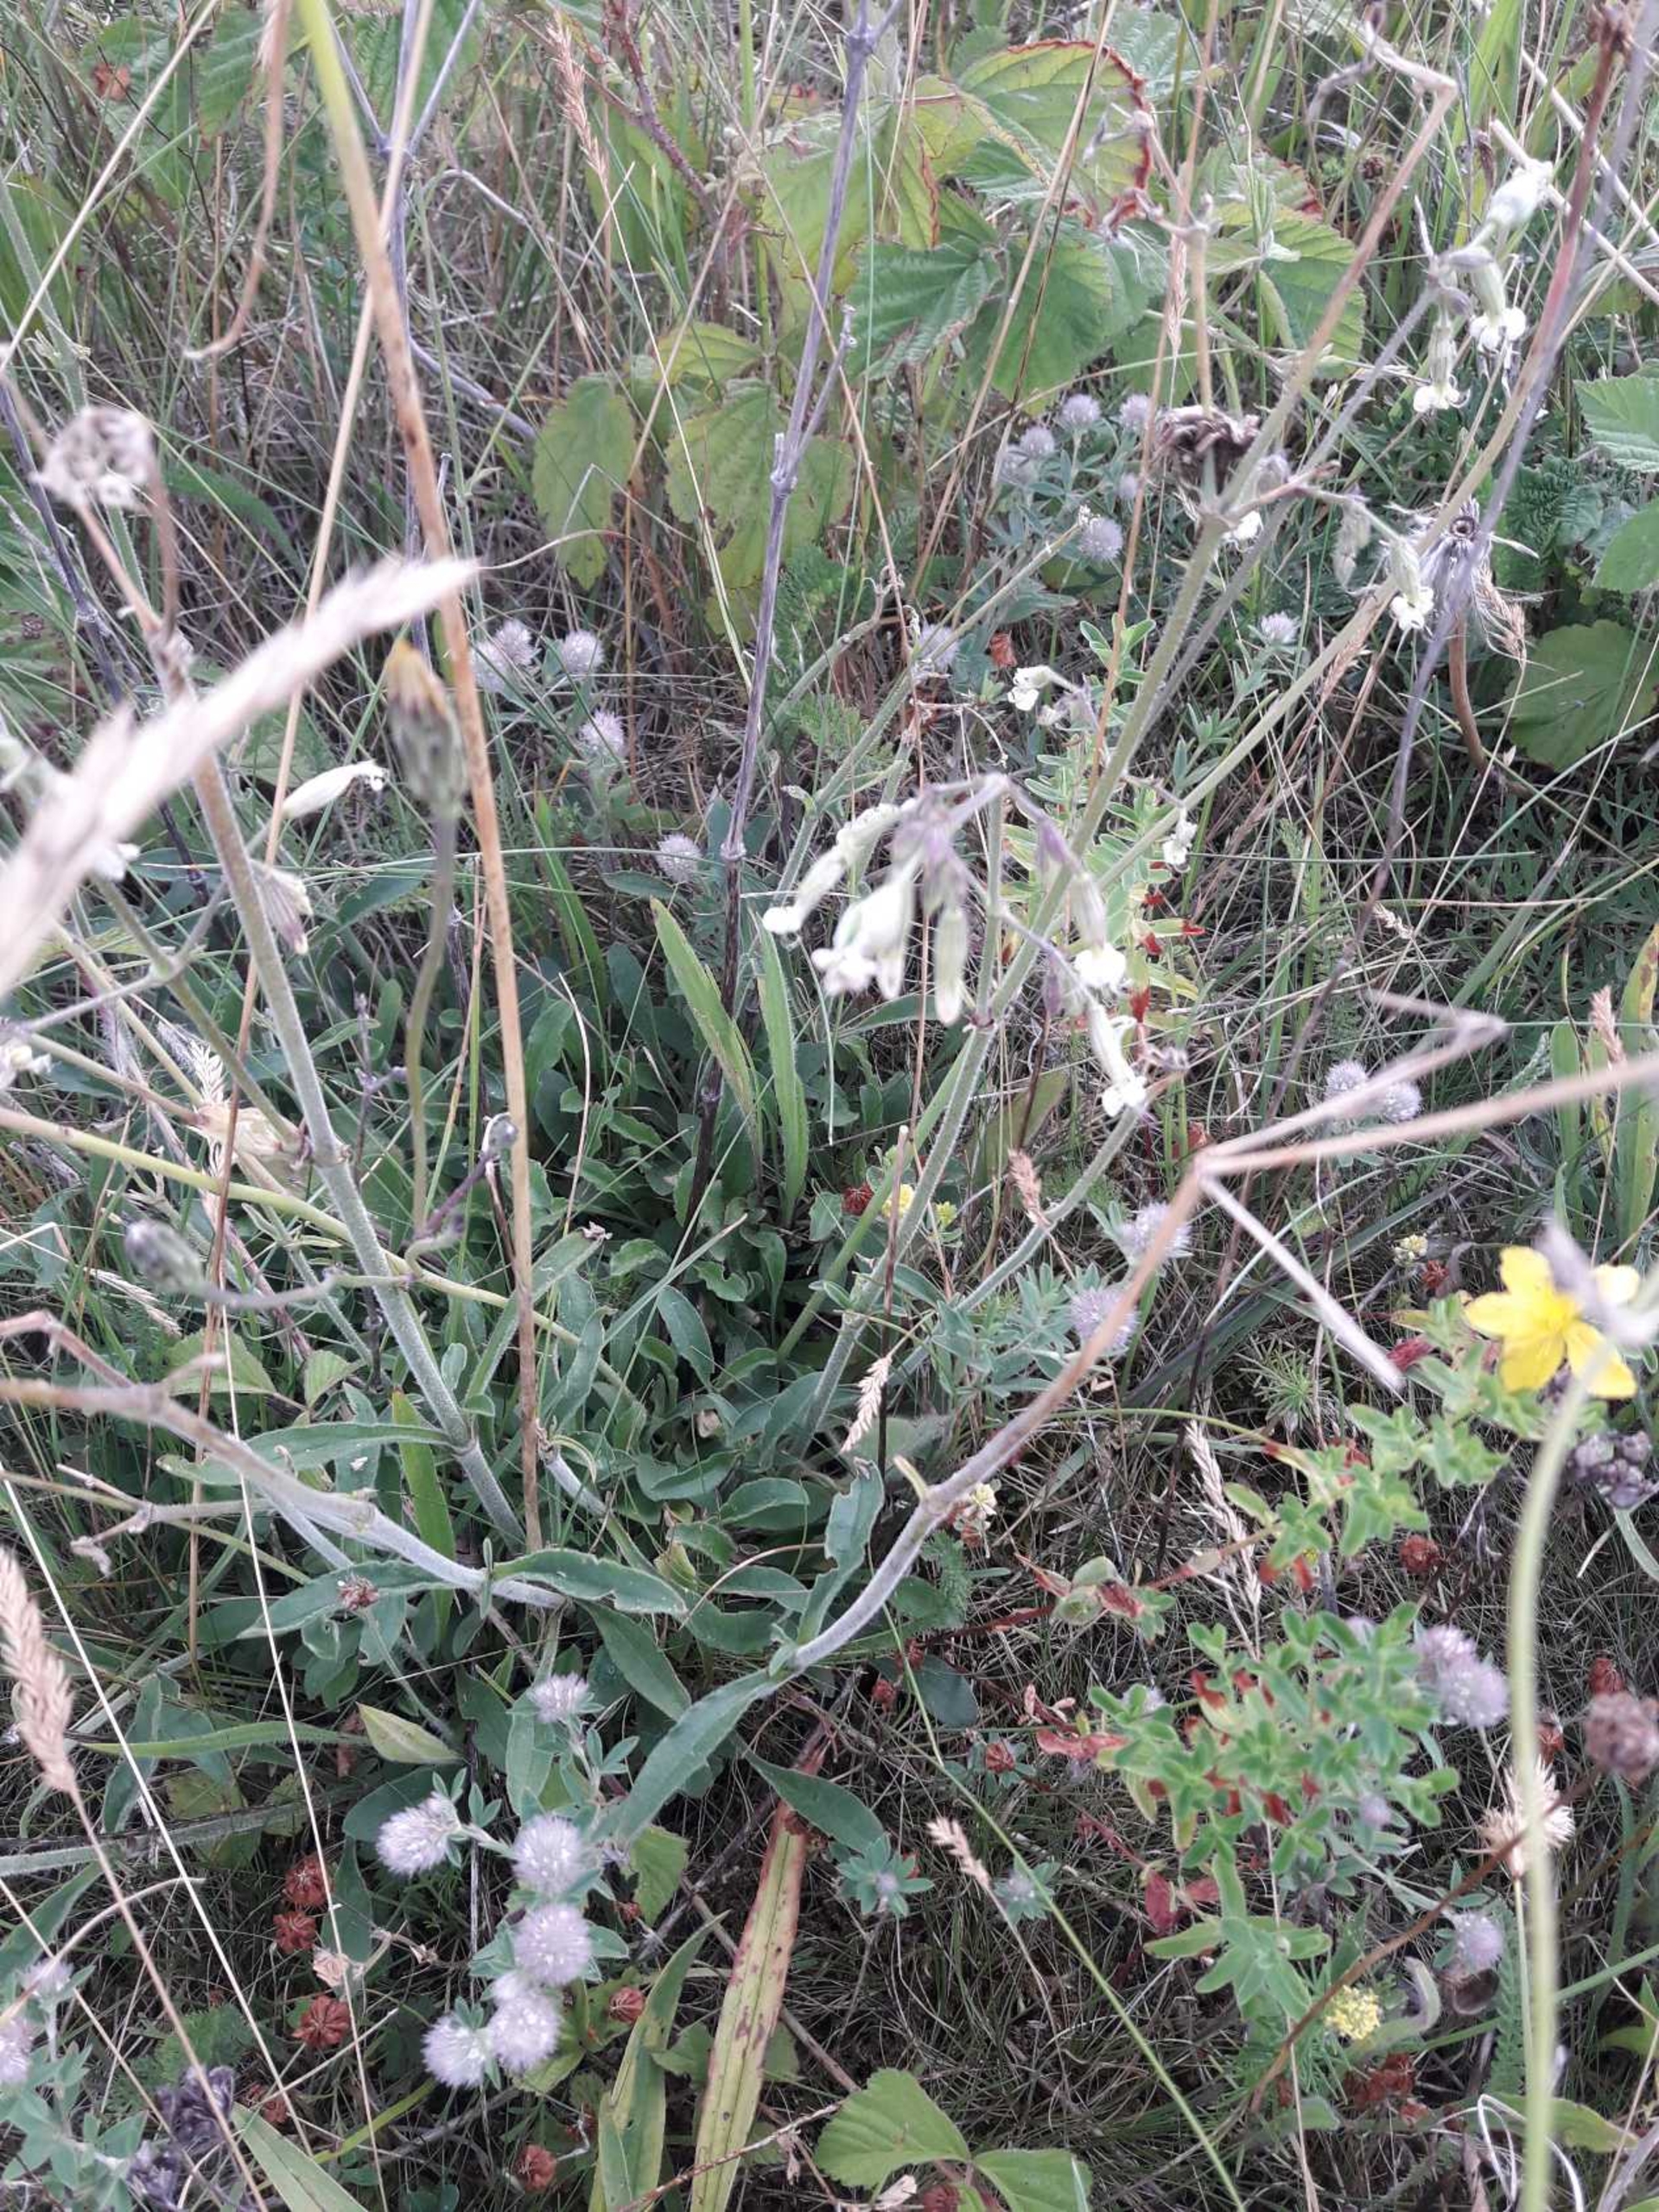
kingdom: Plantae
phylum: Tracheophyta
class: Magnoliopsida
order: Caryophyllales
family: Caryophyllaceae
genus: Silene
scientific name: Silene nutans
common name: Nikkende limurt
